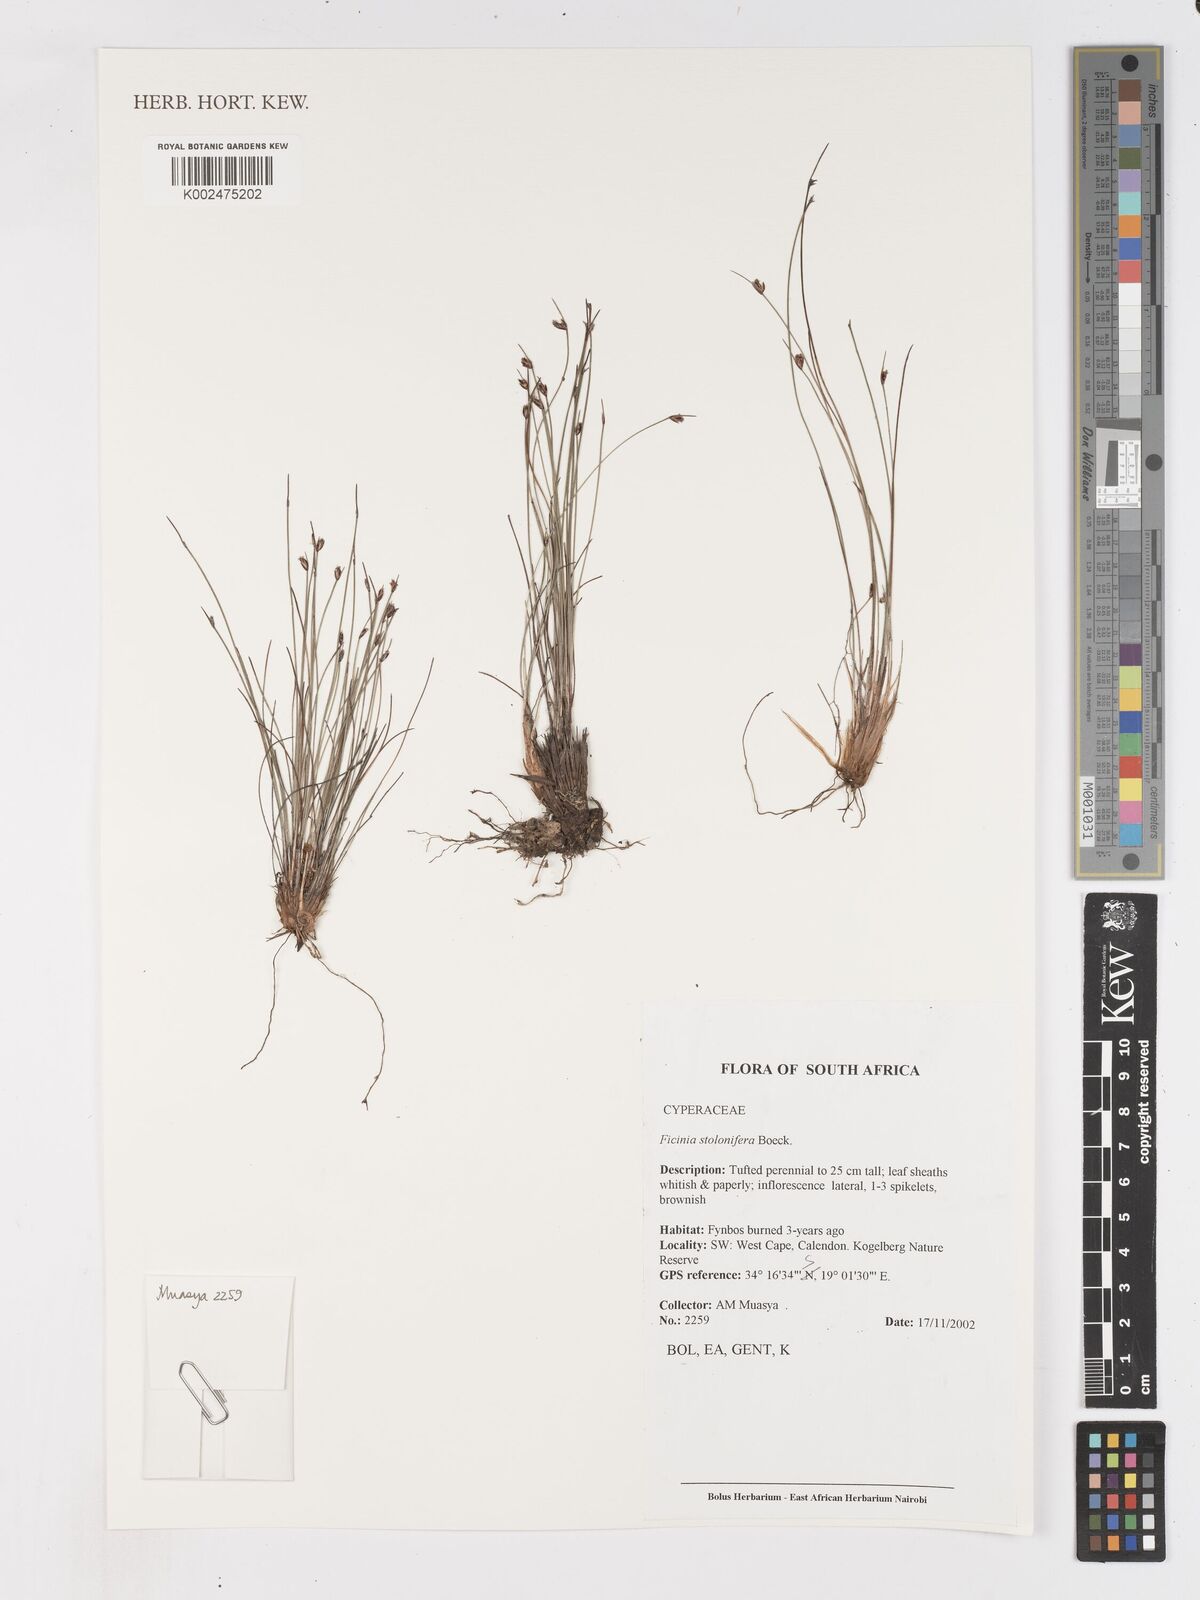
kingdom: Plantae
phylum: Tracheophyta
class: Liliopsida
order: Poales
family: Cyperaceae
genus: Ficinia
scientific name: Ficinia stolonifera
